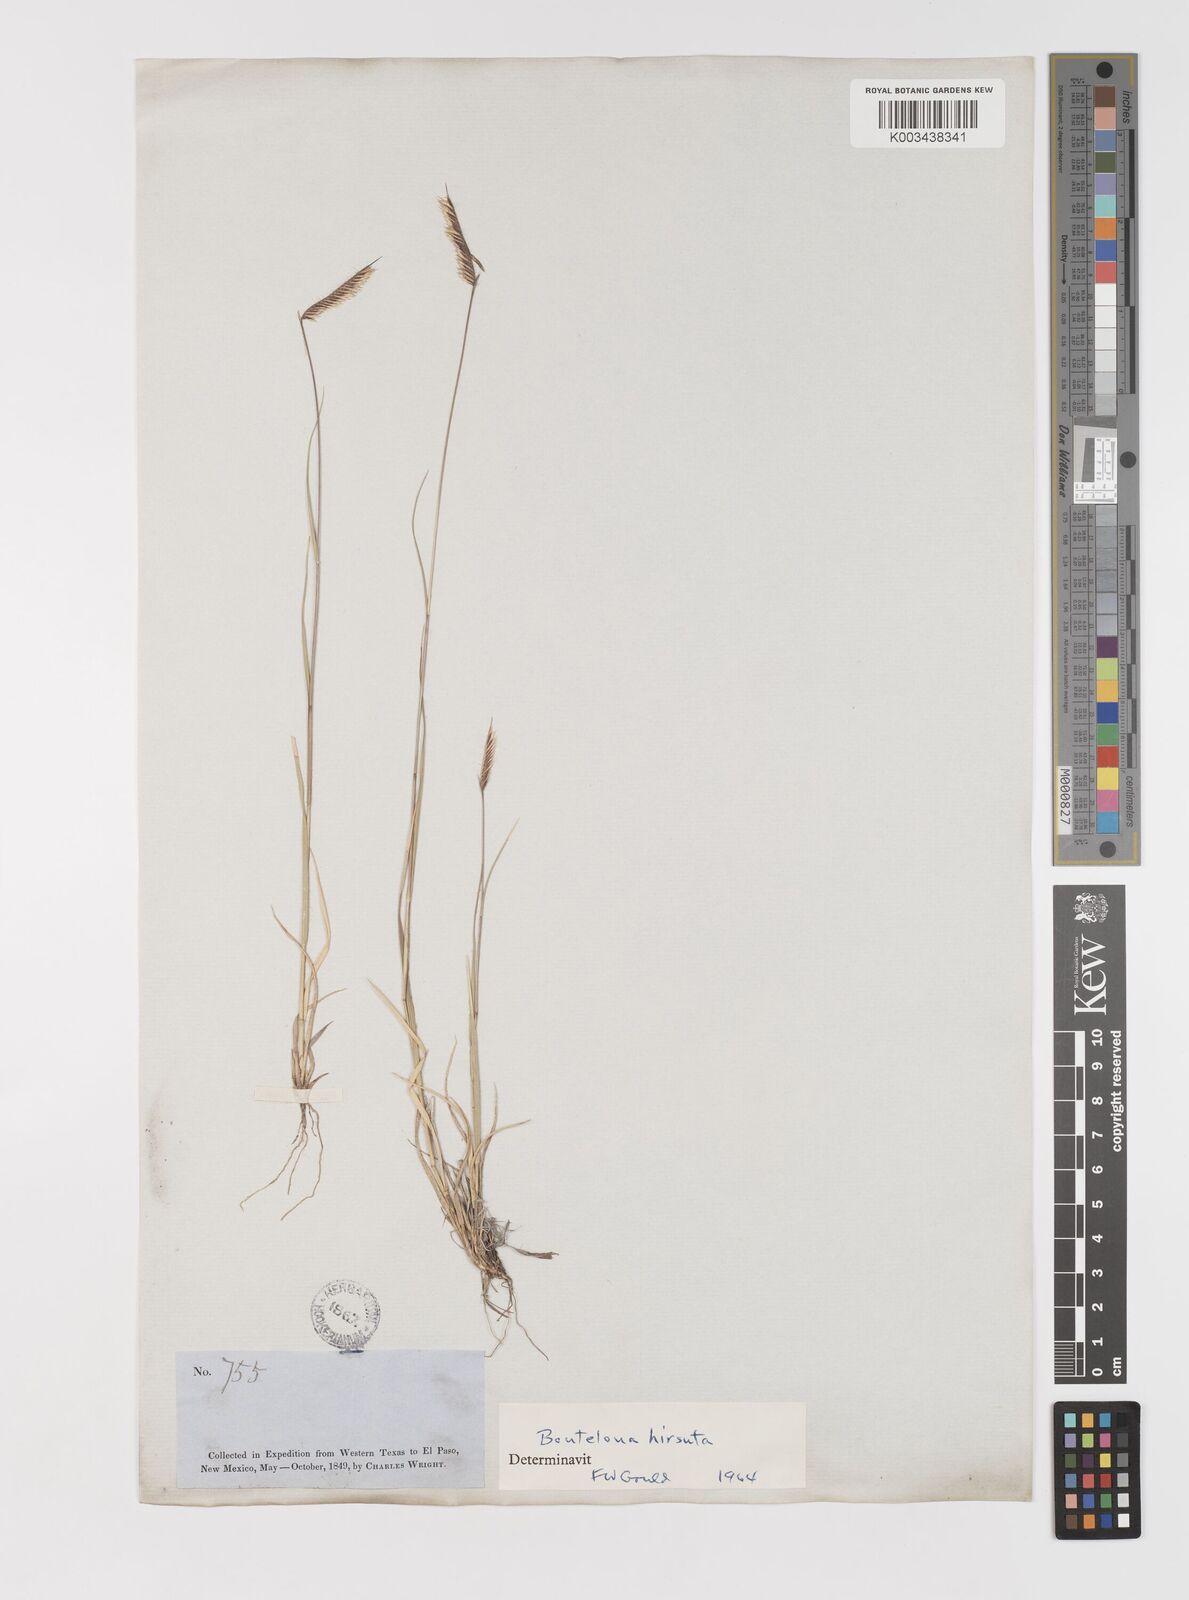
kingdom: Plantae
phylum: Tracheophyta
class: Liliopsida
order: Poales
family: Poaceae
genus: Bouteloua
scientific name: Bouteloua hirsuta
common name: Hairy grama
